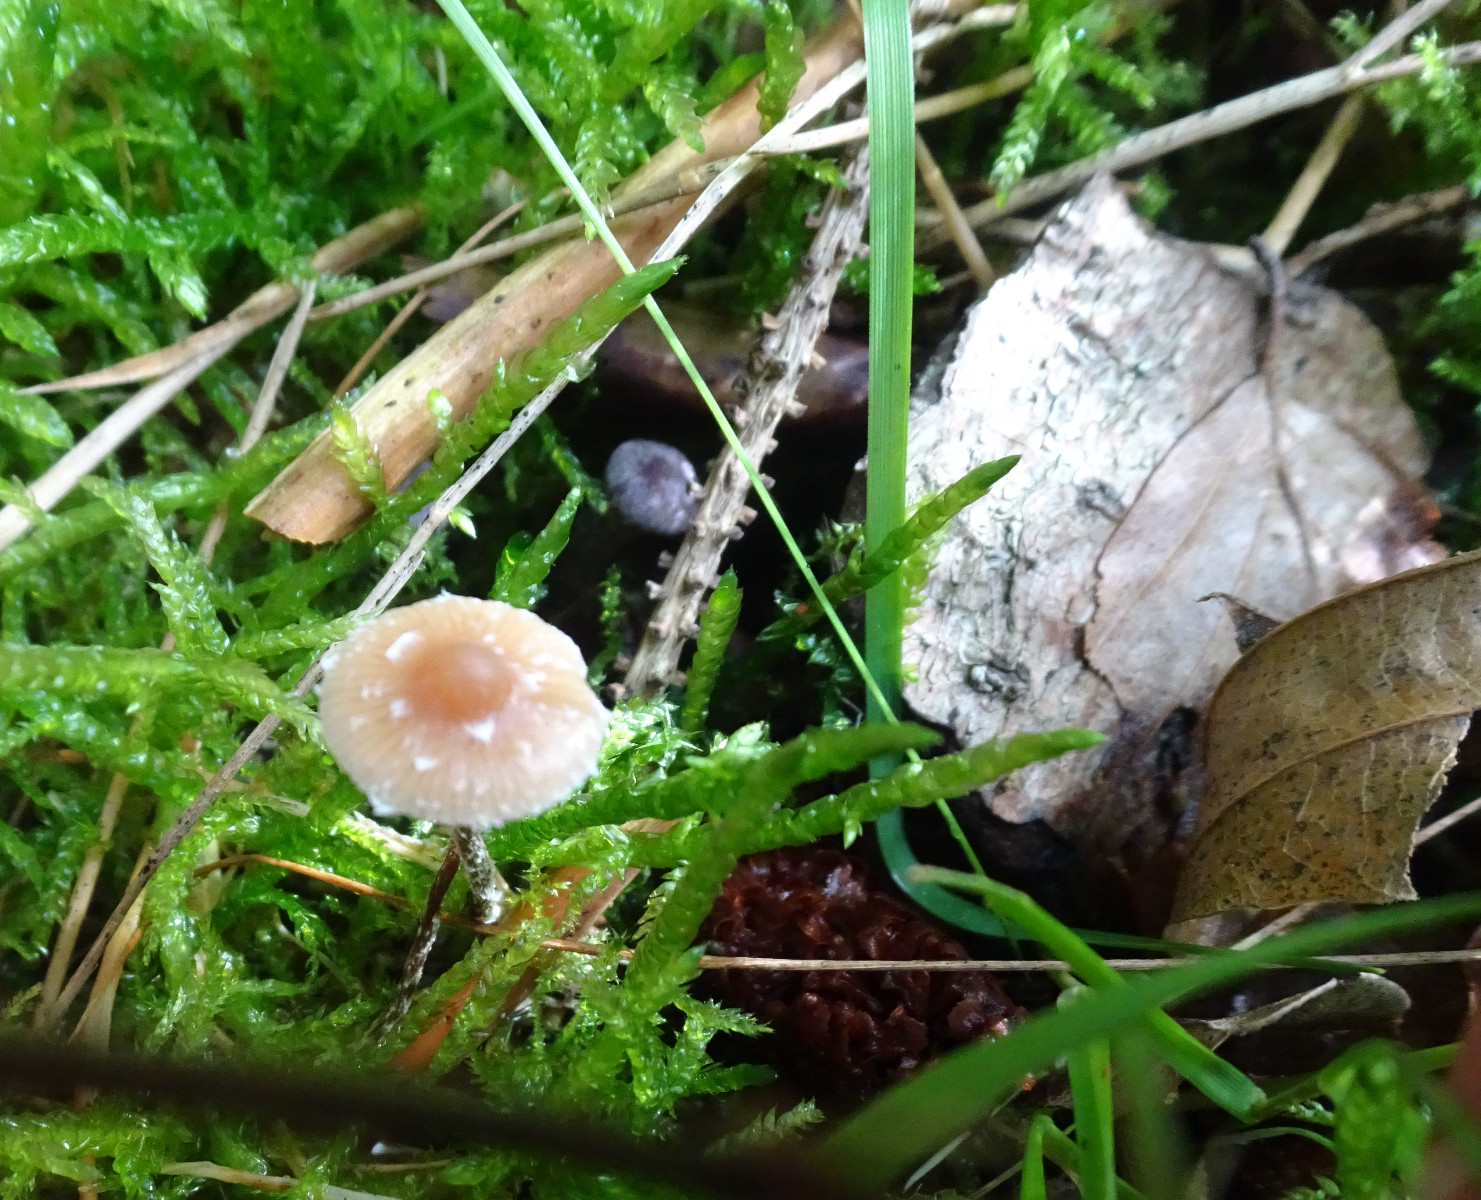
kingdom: Fungi
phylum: Basidiomycota
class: Agaricomycetes
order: Agaricales
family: Strophariaceae
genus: Deconica
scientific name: Deconica
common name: stråhat
